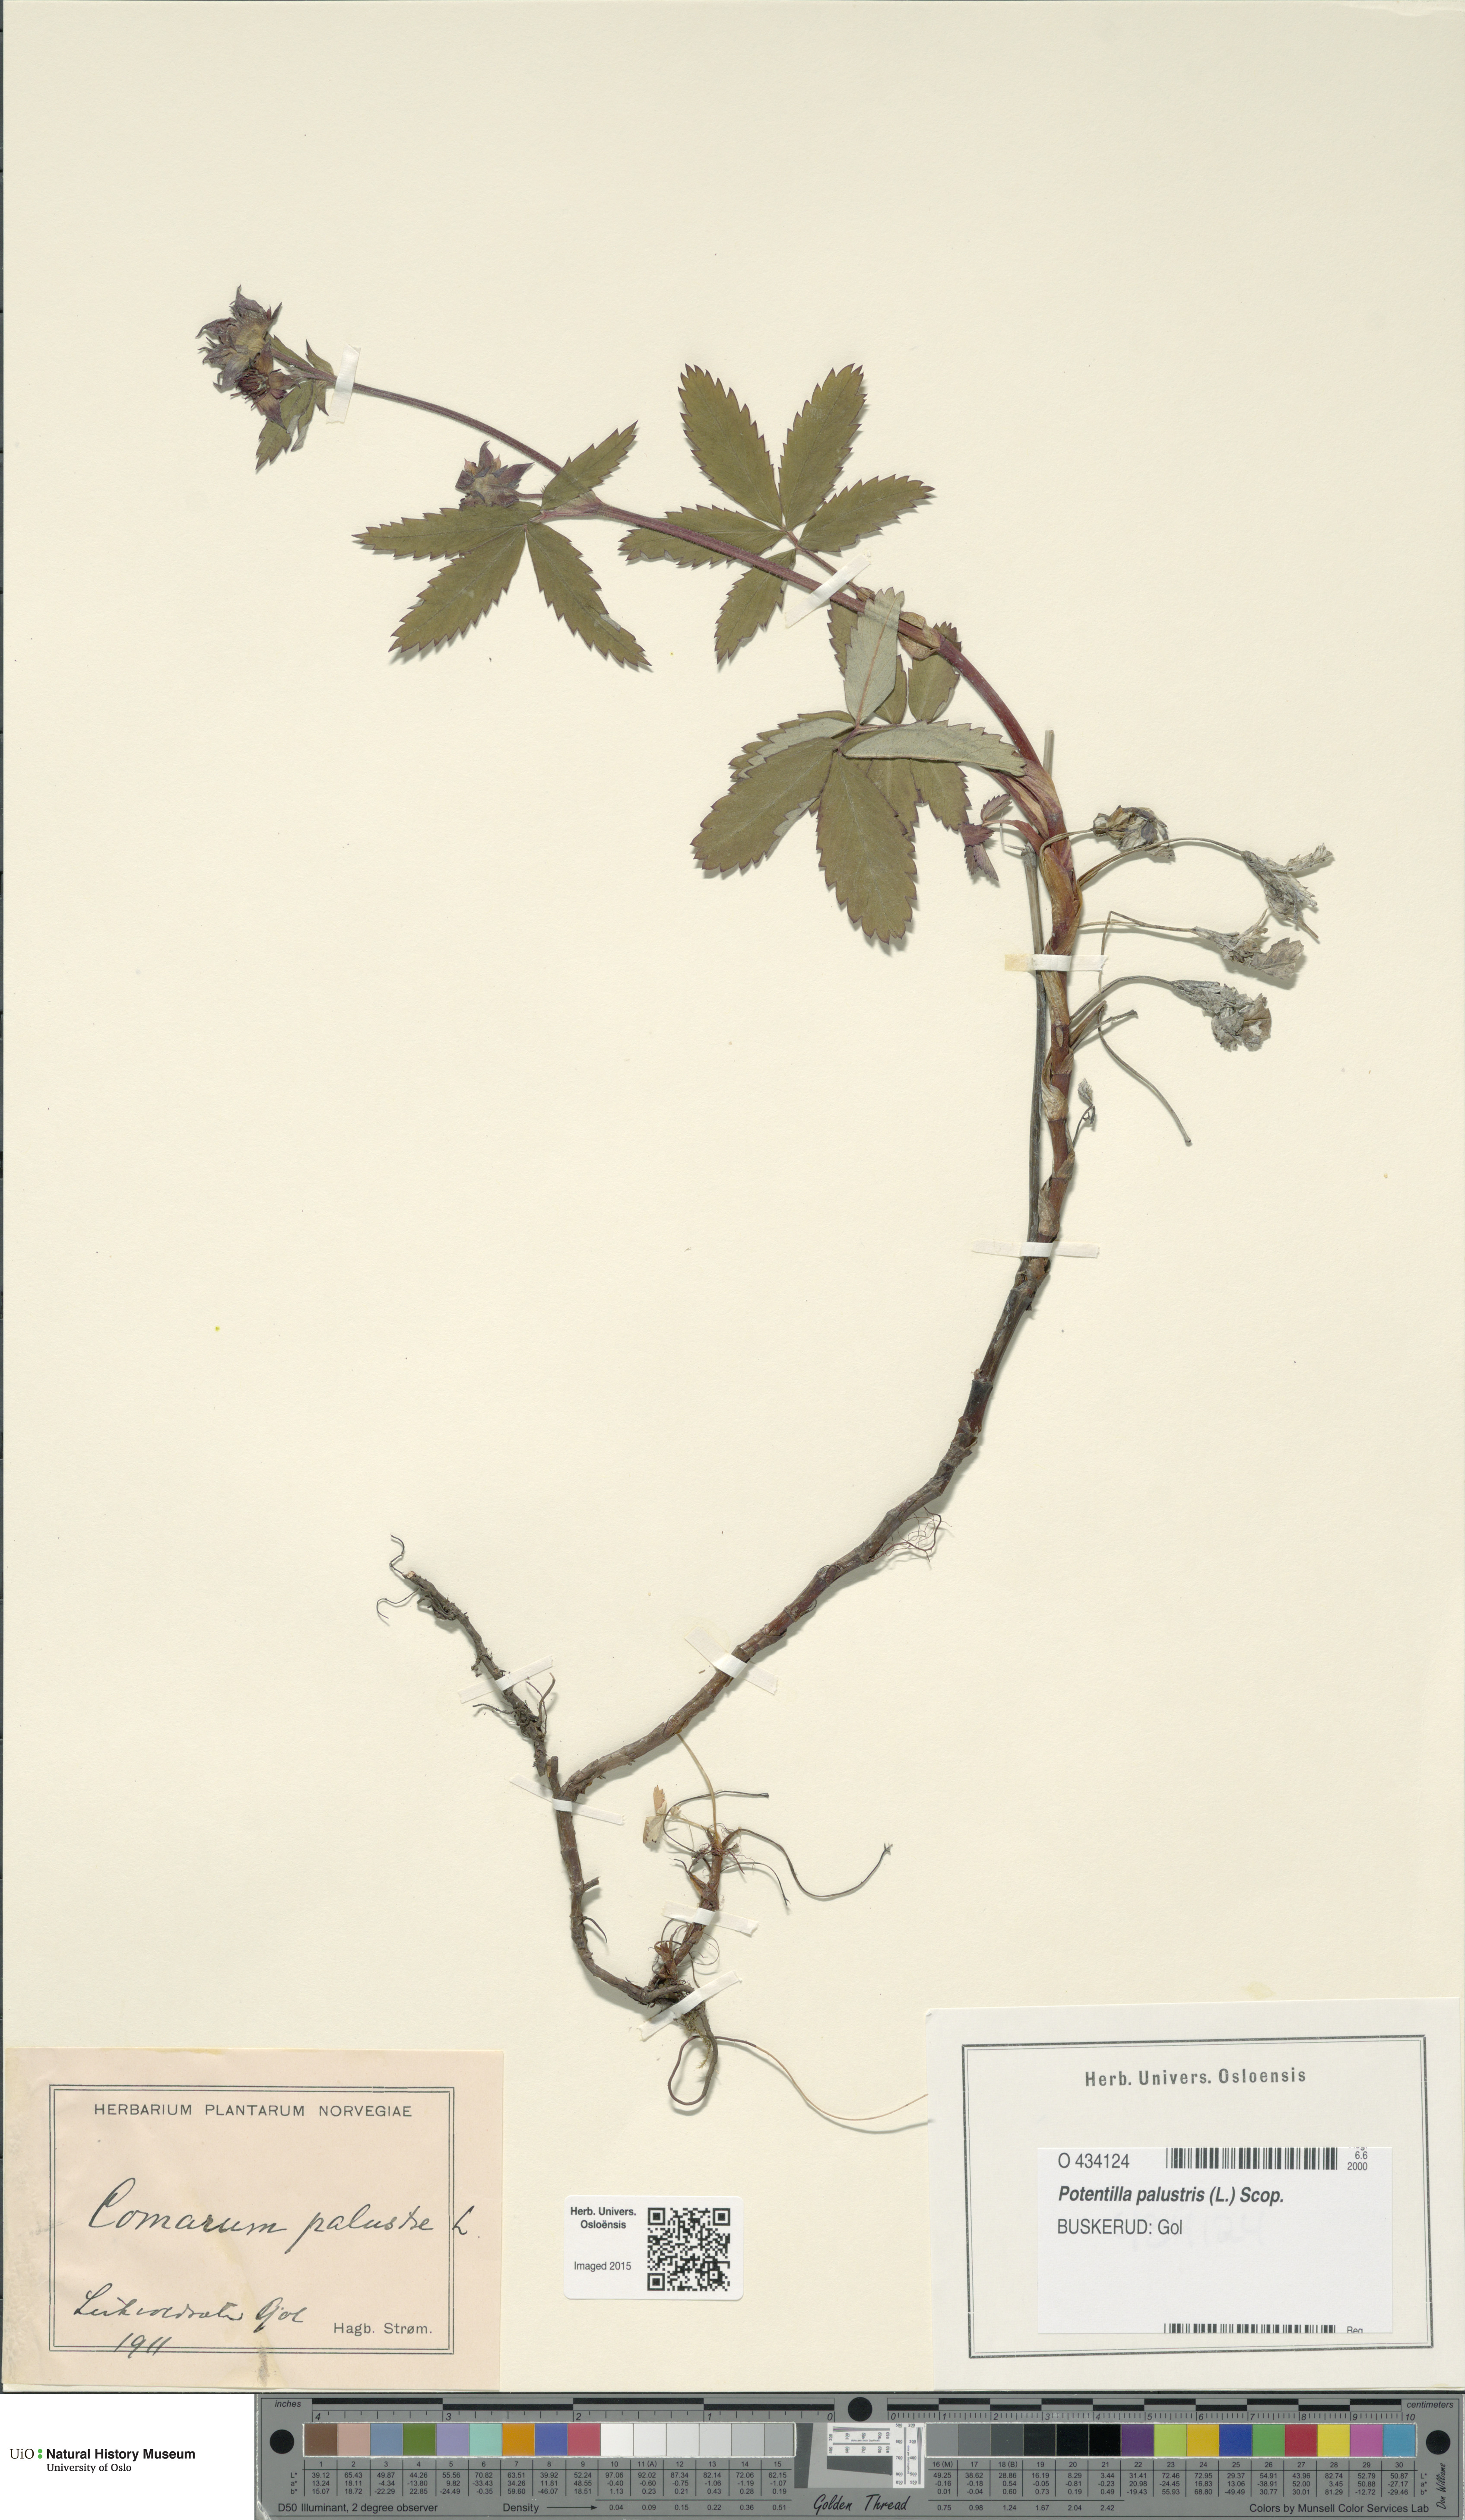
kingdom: Plantae
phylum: Tracheophyta
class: Magnoliopsida
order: Rosales
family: Rosaceae
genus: Comarum
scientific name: Comarum palustre
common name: Marsh cinquefoil
